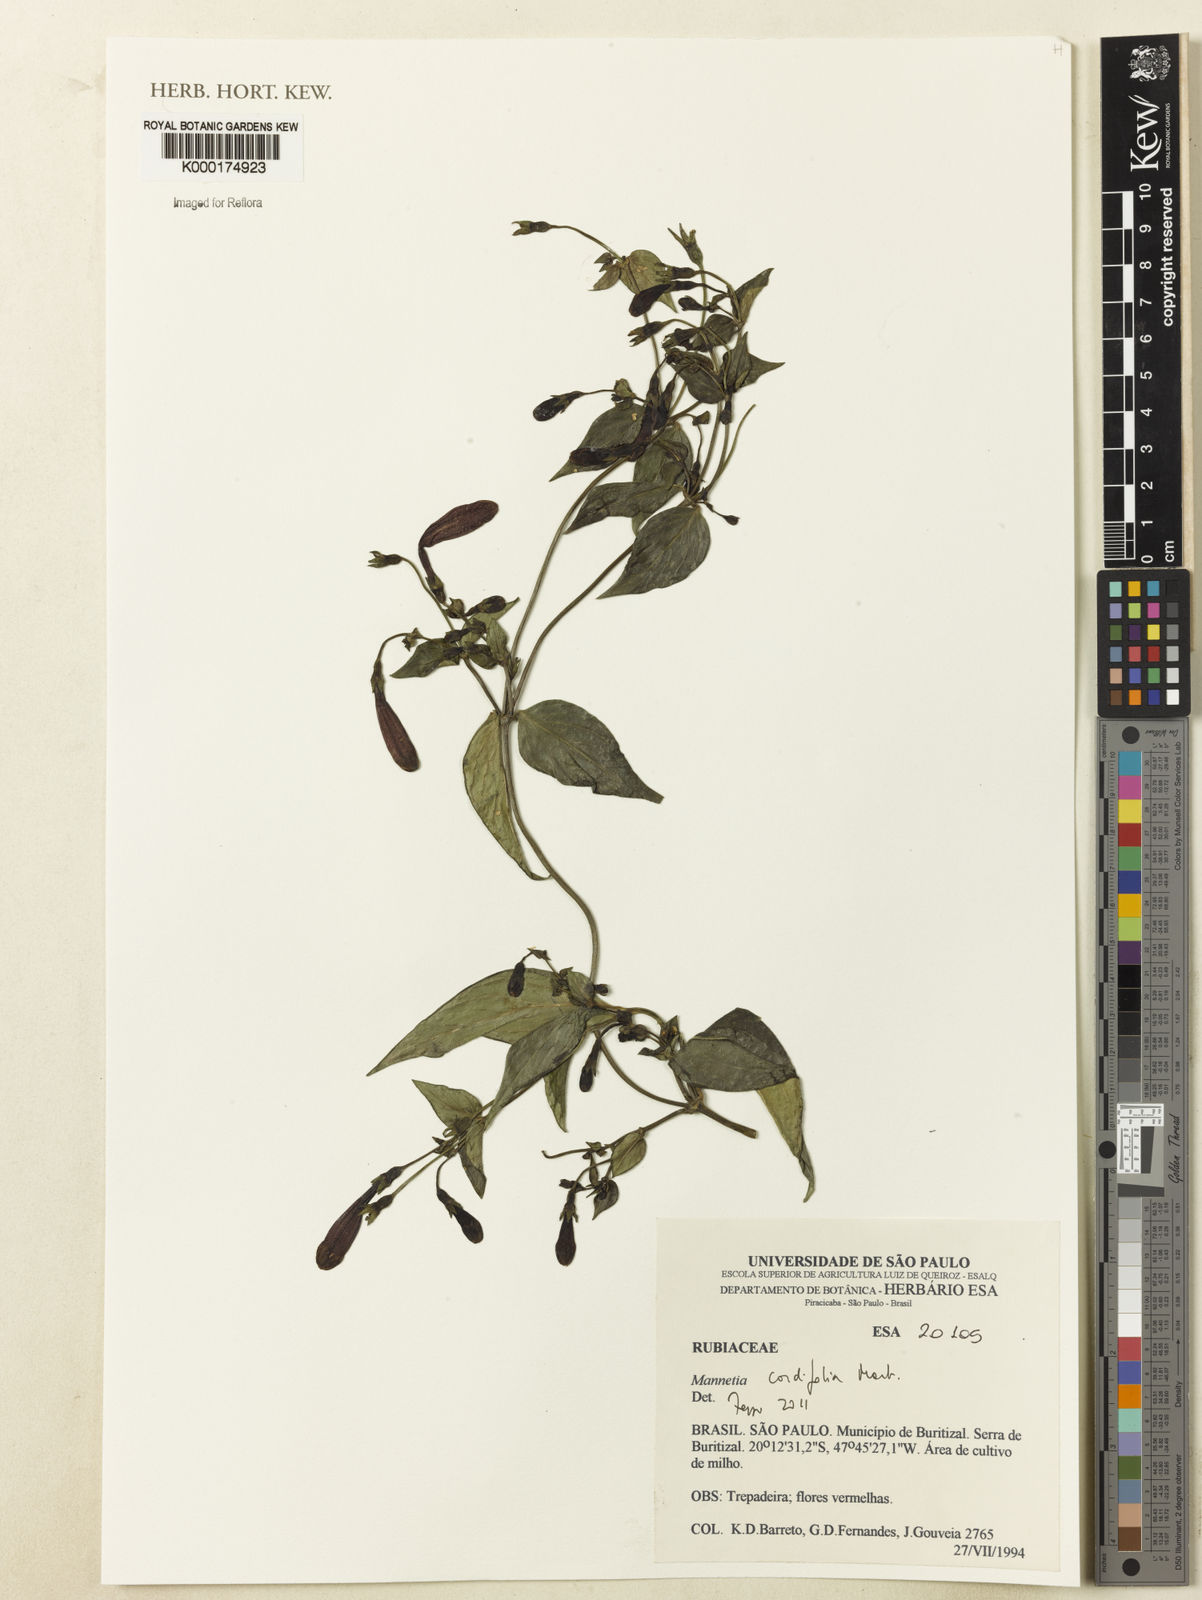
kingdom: Plantae
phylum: Tracheophyta
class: Magnoliopsida
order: Gentianales
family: Rubiaceae
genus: Manettia
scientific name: Manettia cordifolia
